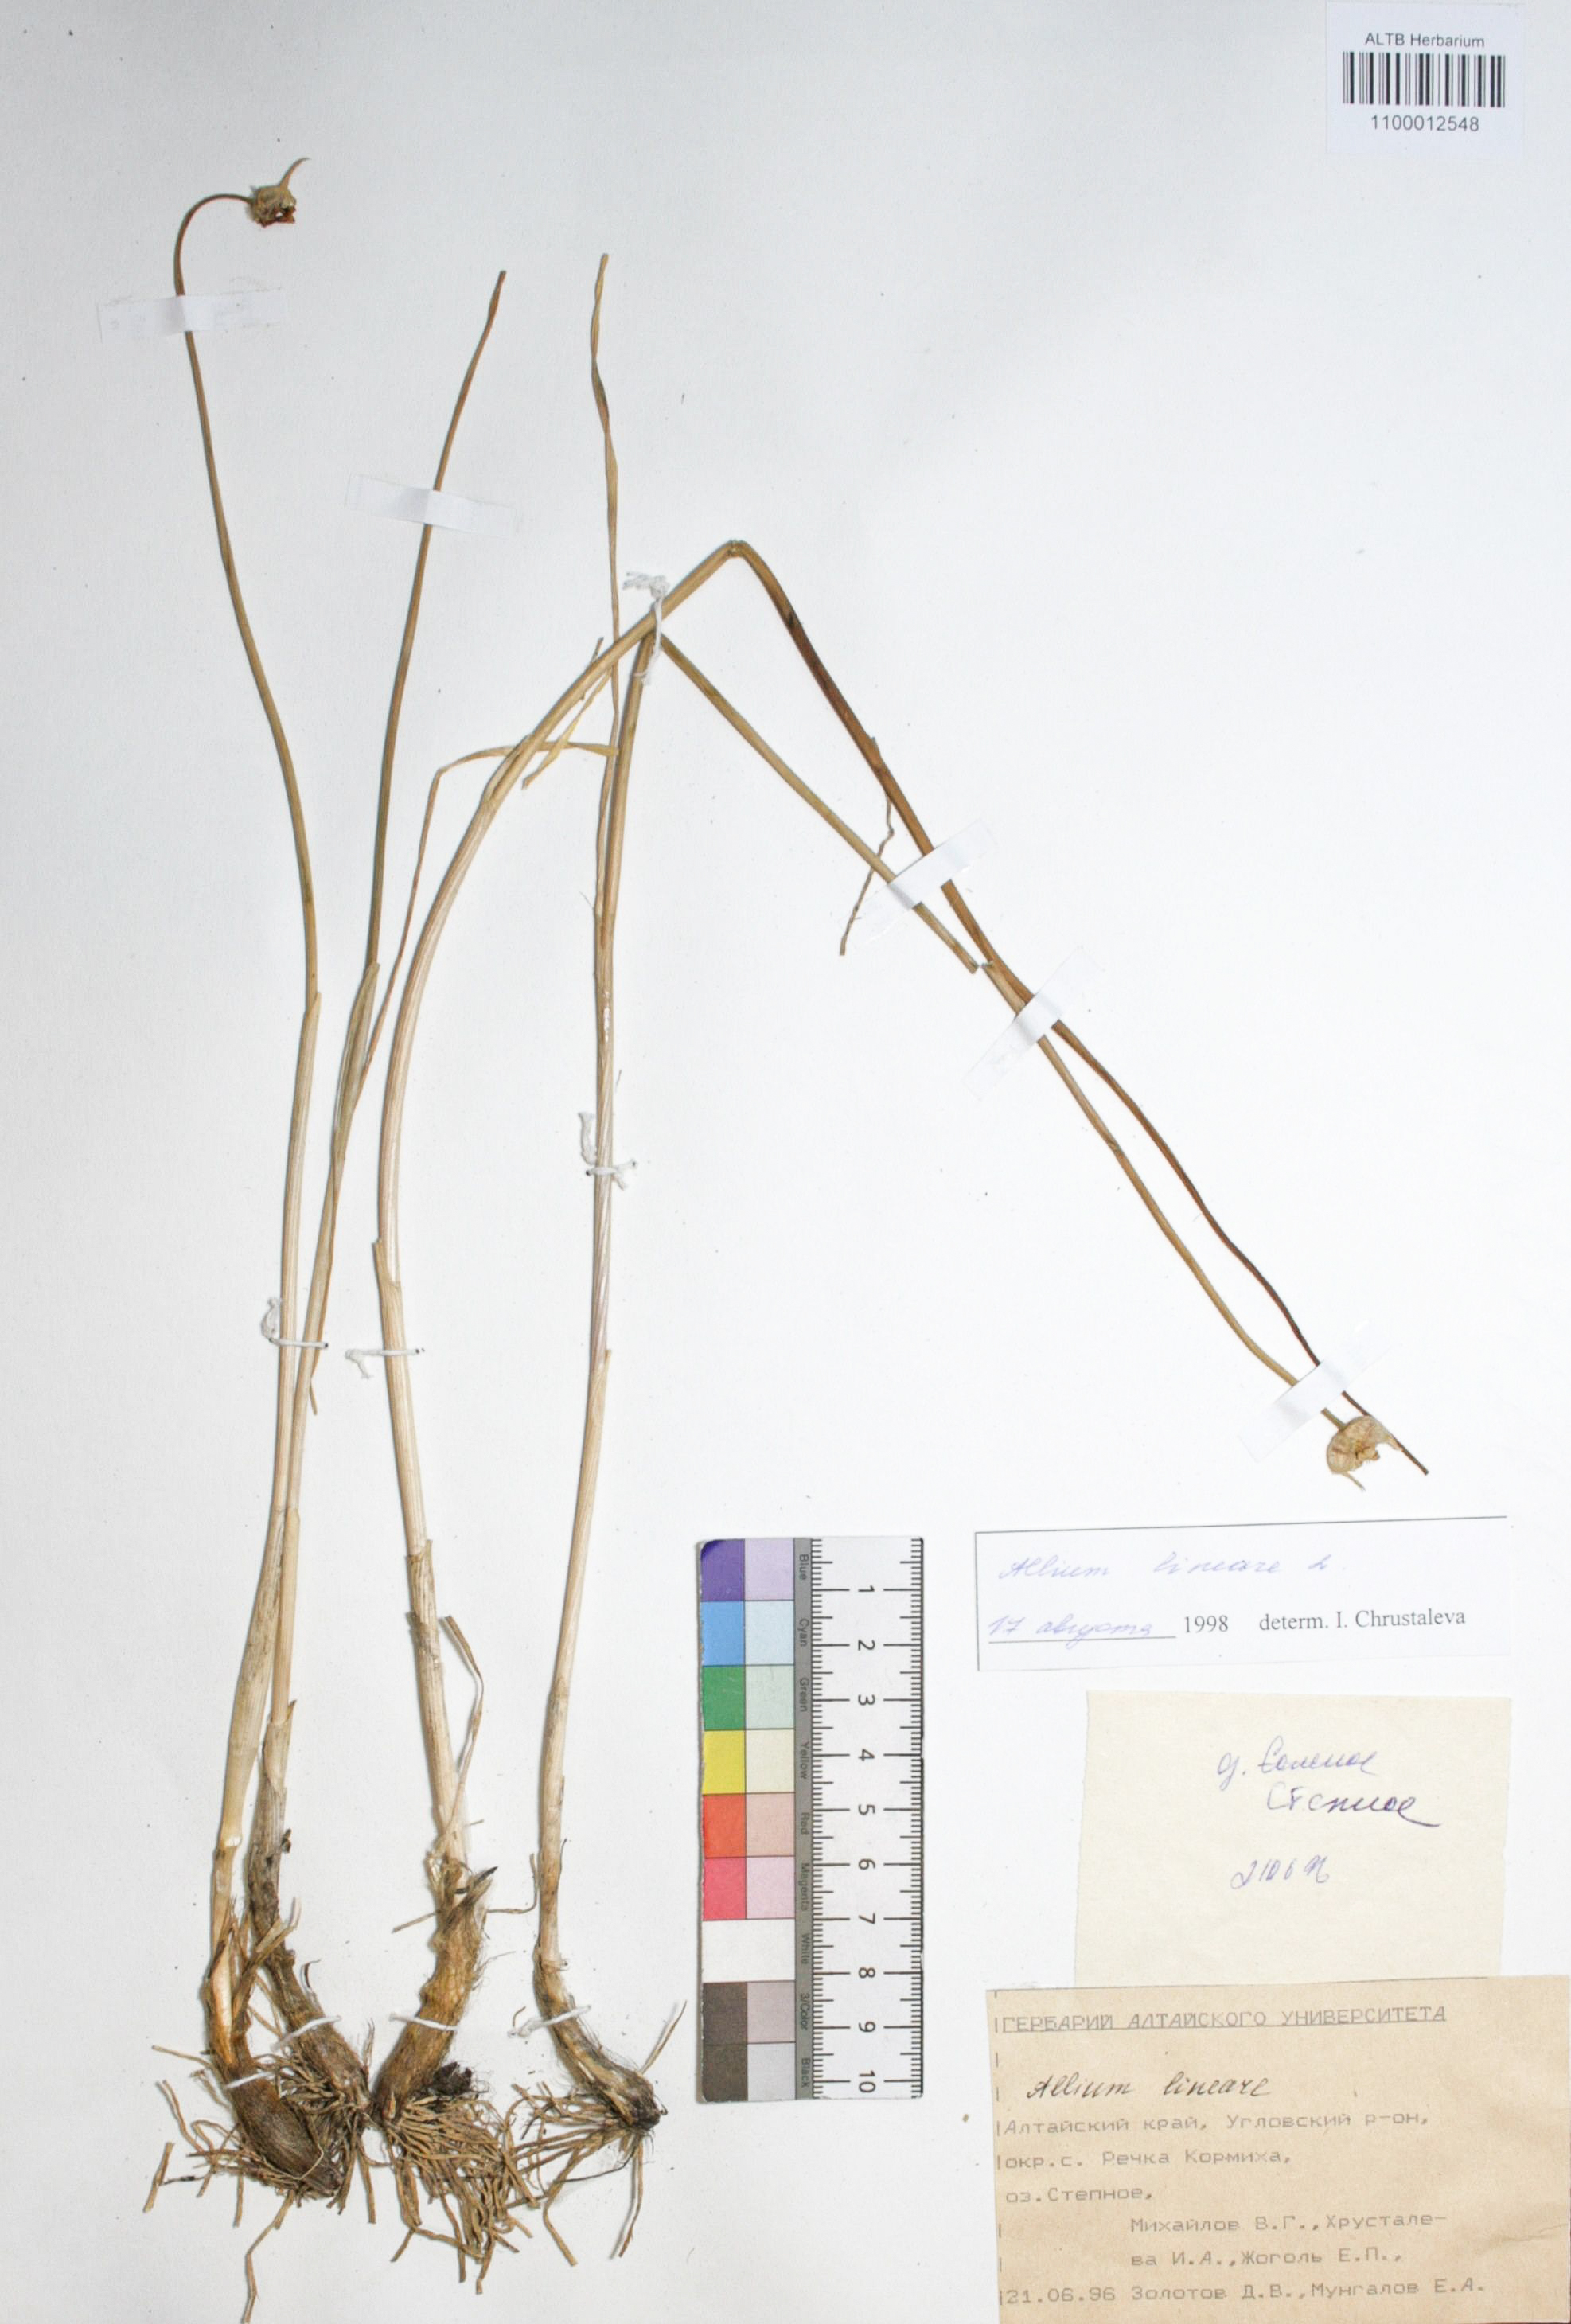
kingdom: Plantae
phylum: Tracheophyta
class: Liliopsida
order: Asparagales
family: Amaryllidaceae
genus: Allium
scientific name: Allium lineare
